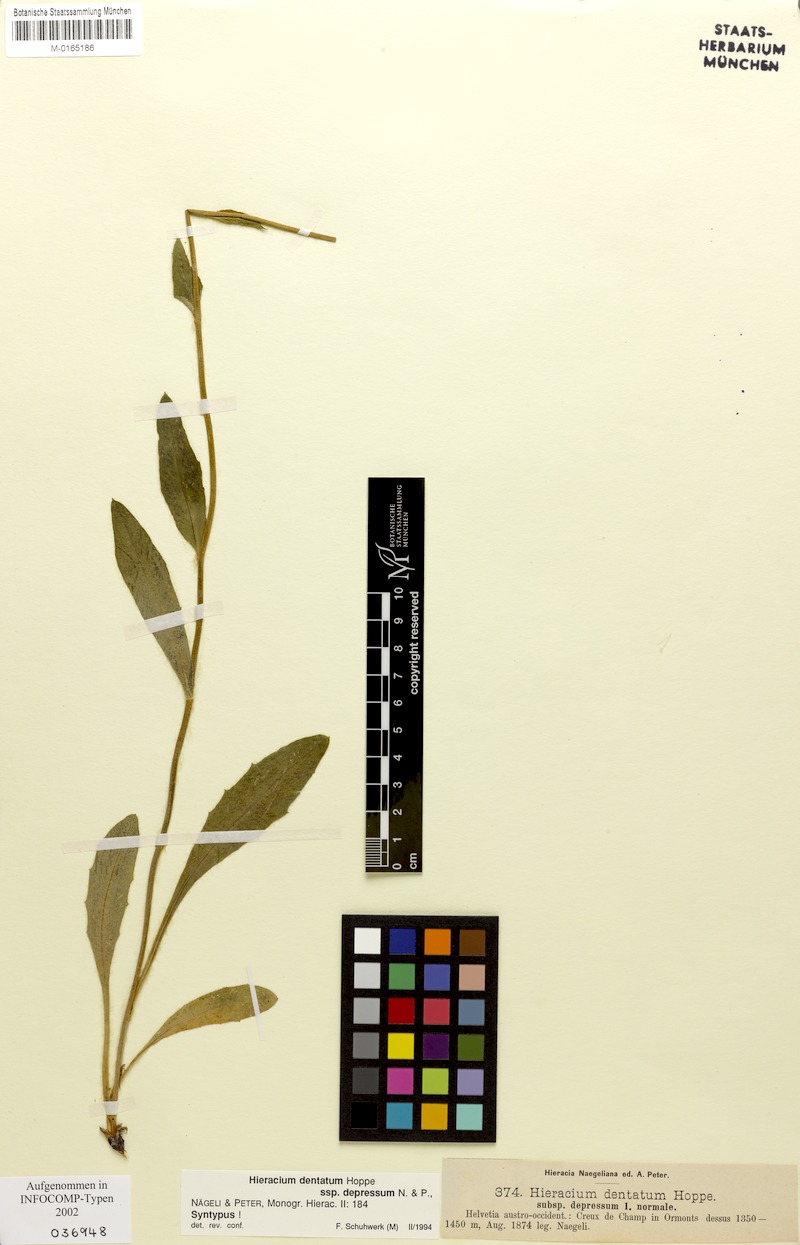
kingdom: Plantae
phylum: Tracheophyta
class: Magnoliopsida
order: Asterales
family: Asteraceae
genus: Hieracium
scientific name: Hieracium dentatum
